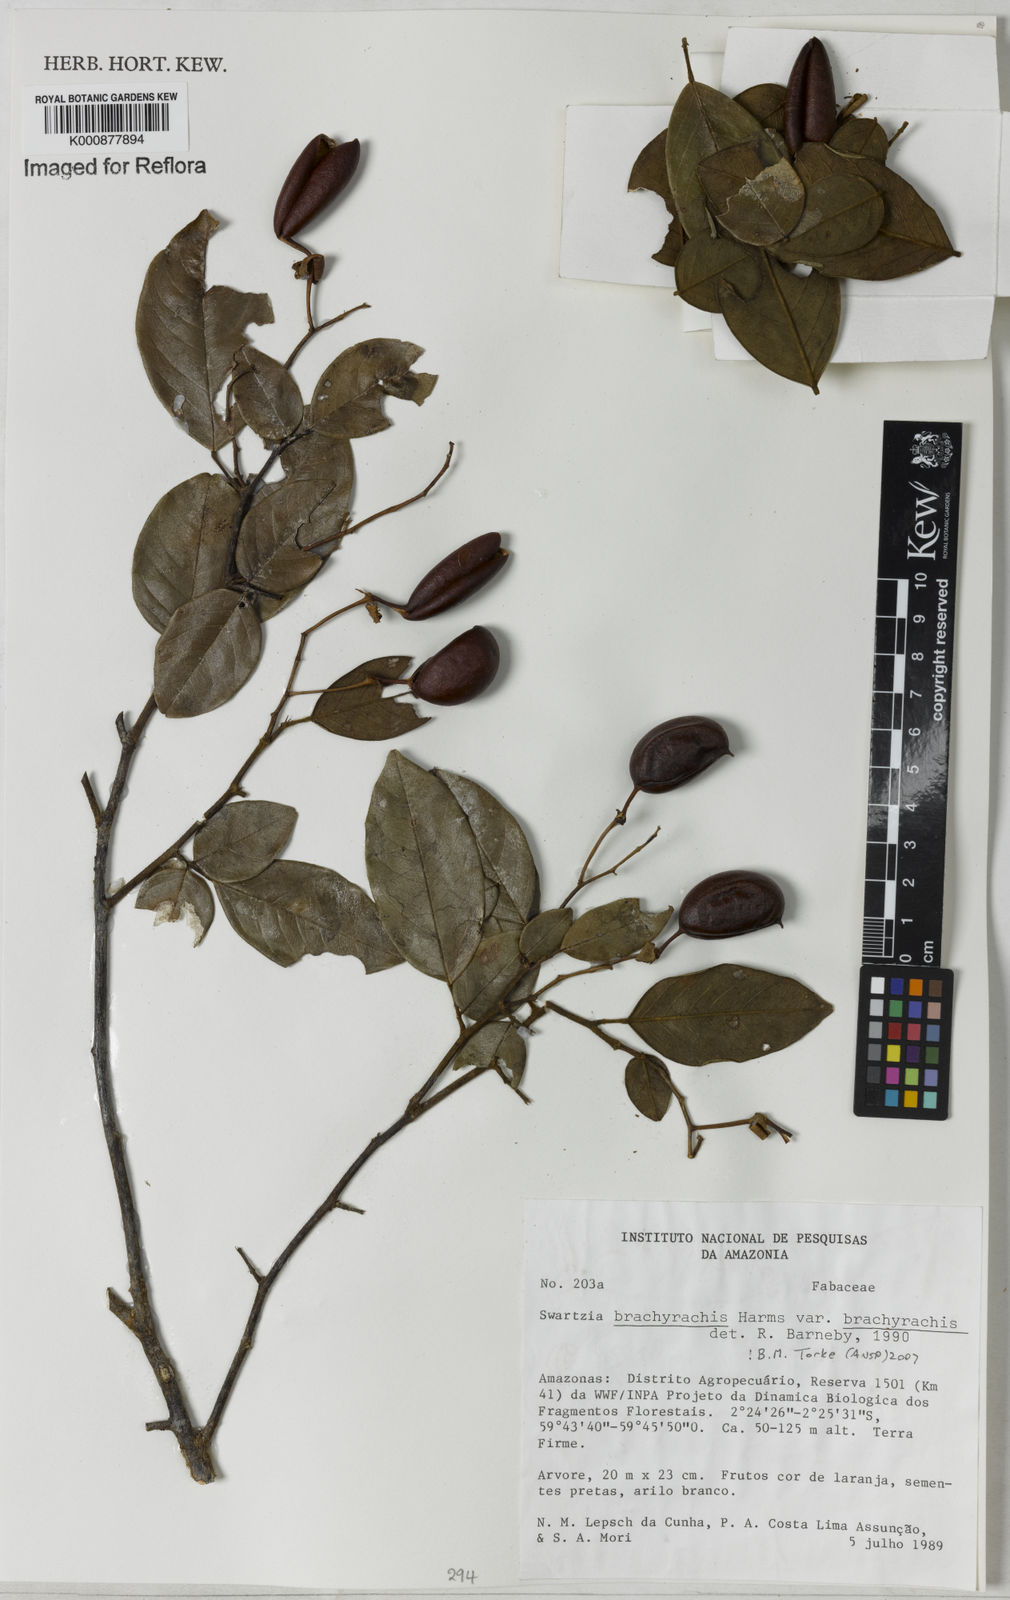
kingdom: Plantae
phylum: Tracheophyta
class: Magnoliopsida
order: Fabales
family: Fabaceae
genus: Swartzia
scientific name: Swartzia
